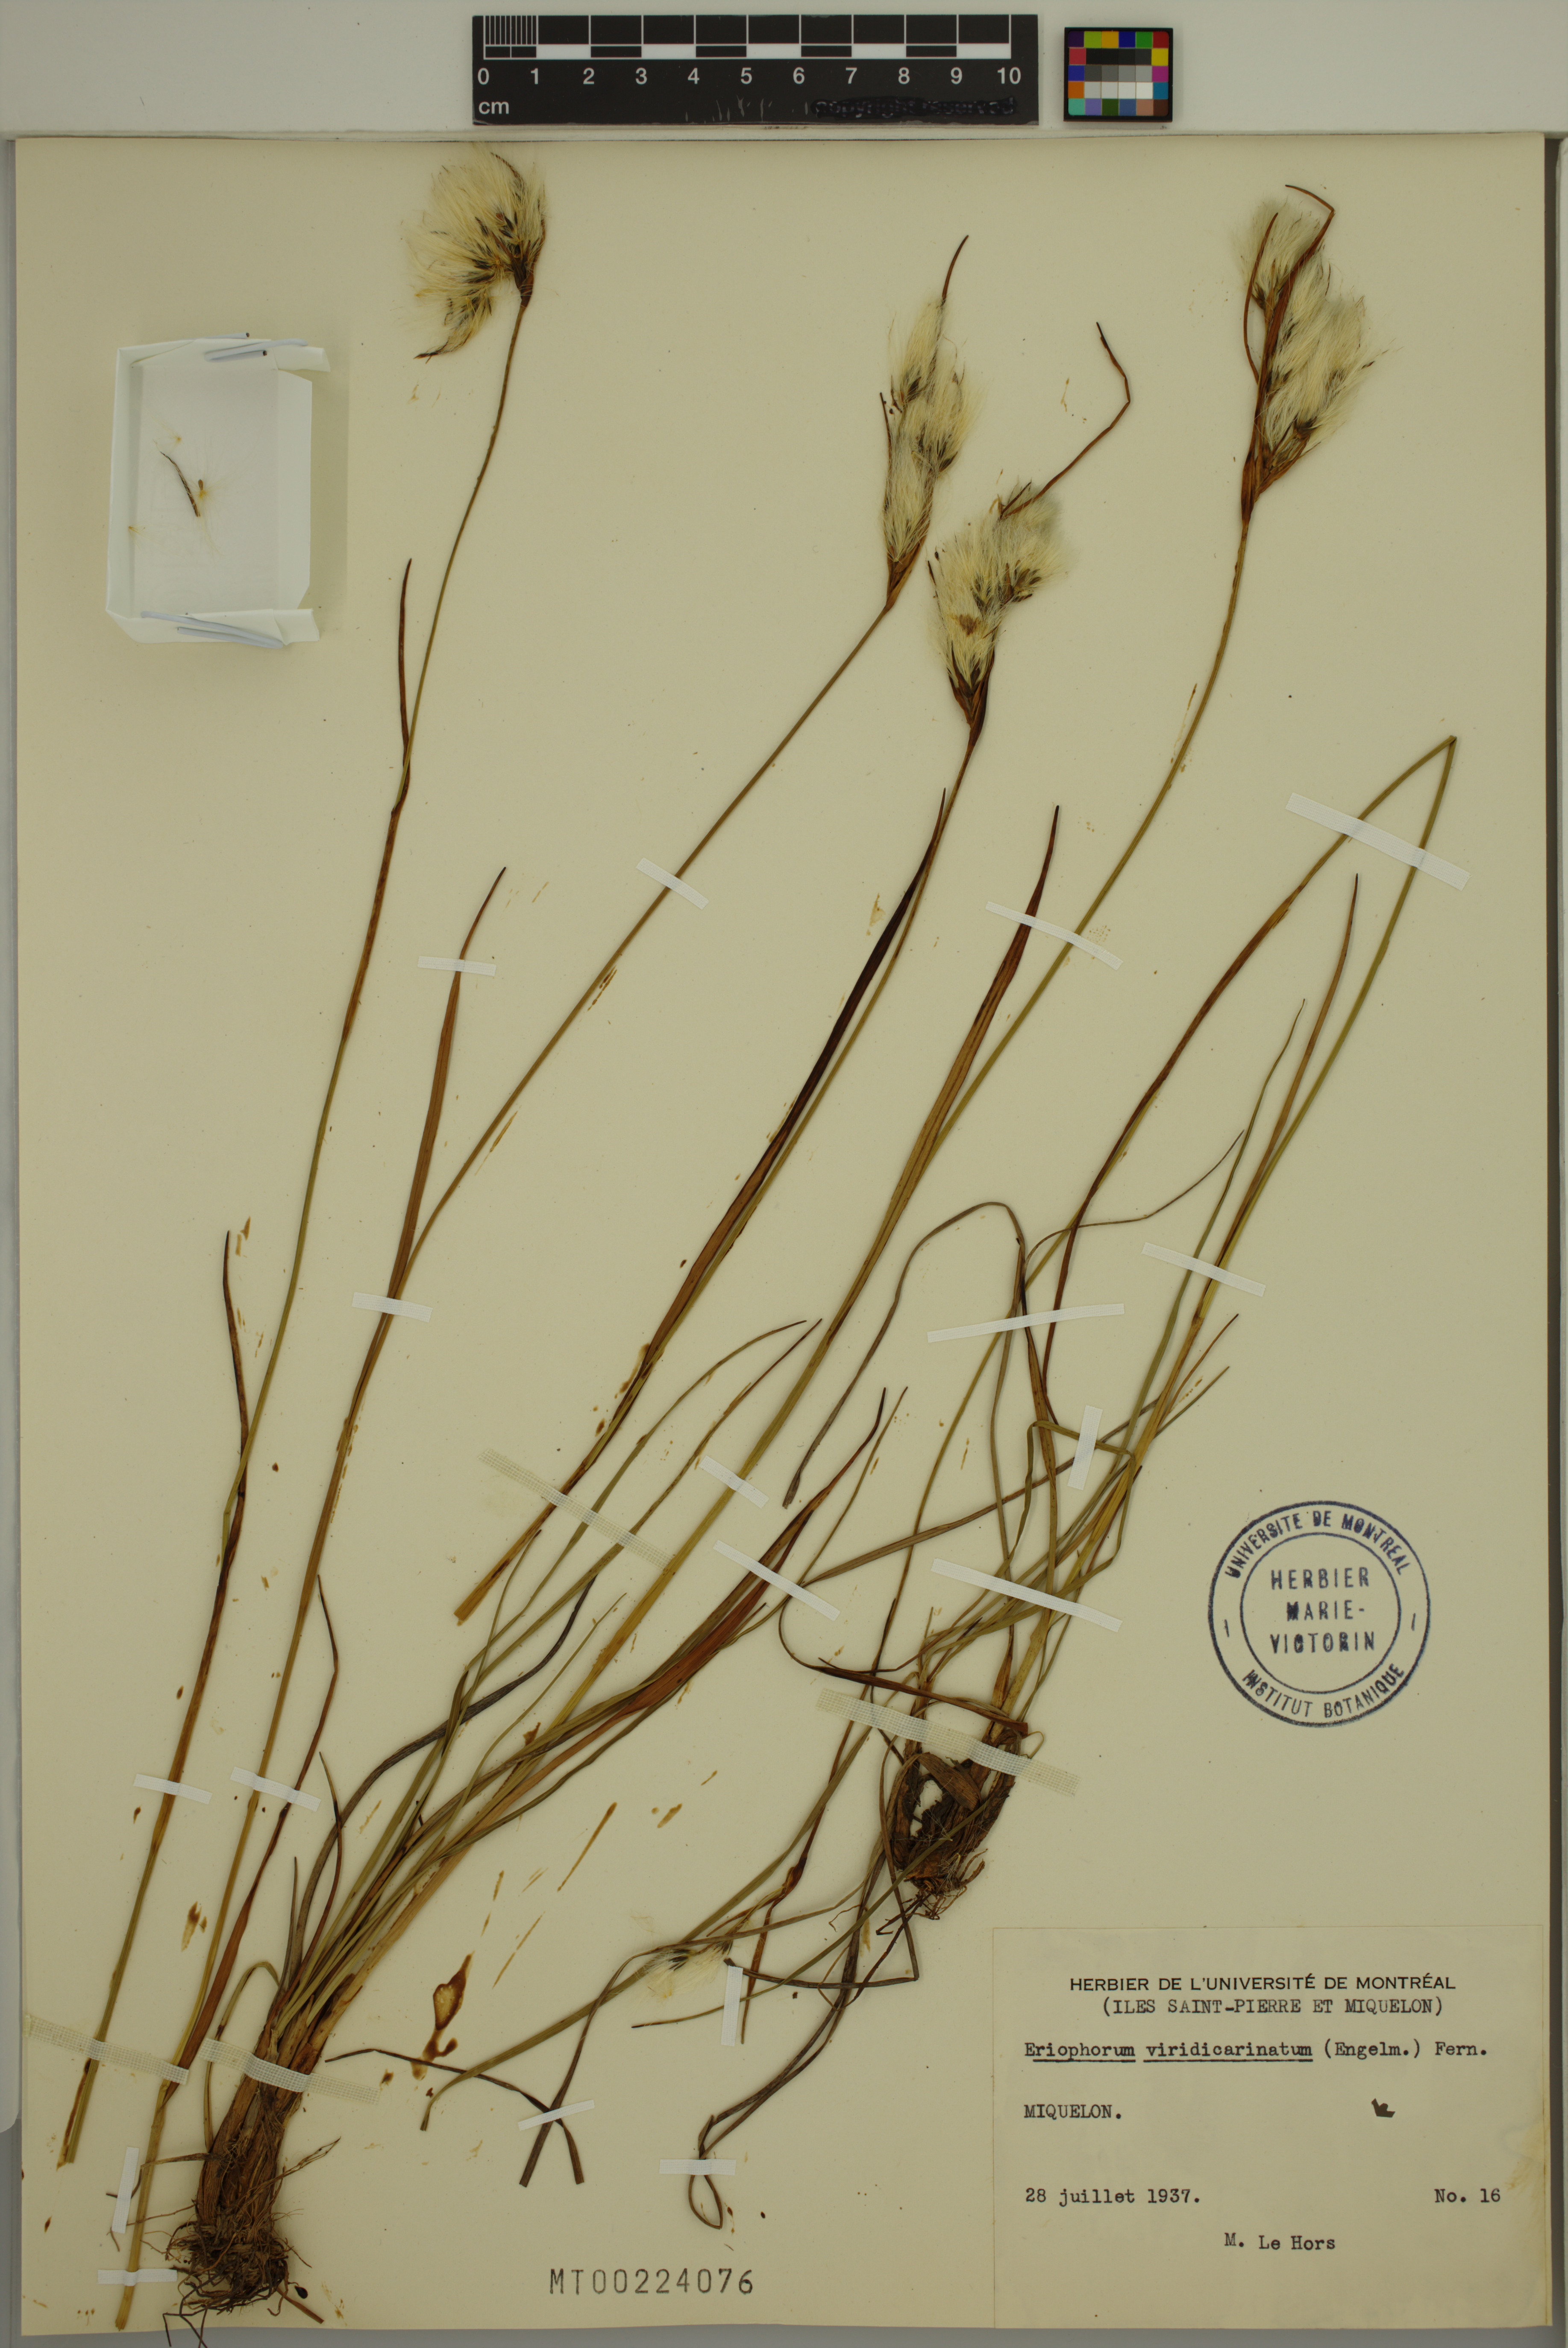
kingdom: Plantae
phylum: Tracheophyta
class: Liliopsida
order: Poales
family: Cyperaceae
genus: Eriophorum
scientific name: Eriophorum viridicarinatum
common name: Green-keeled cottongrass
